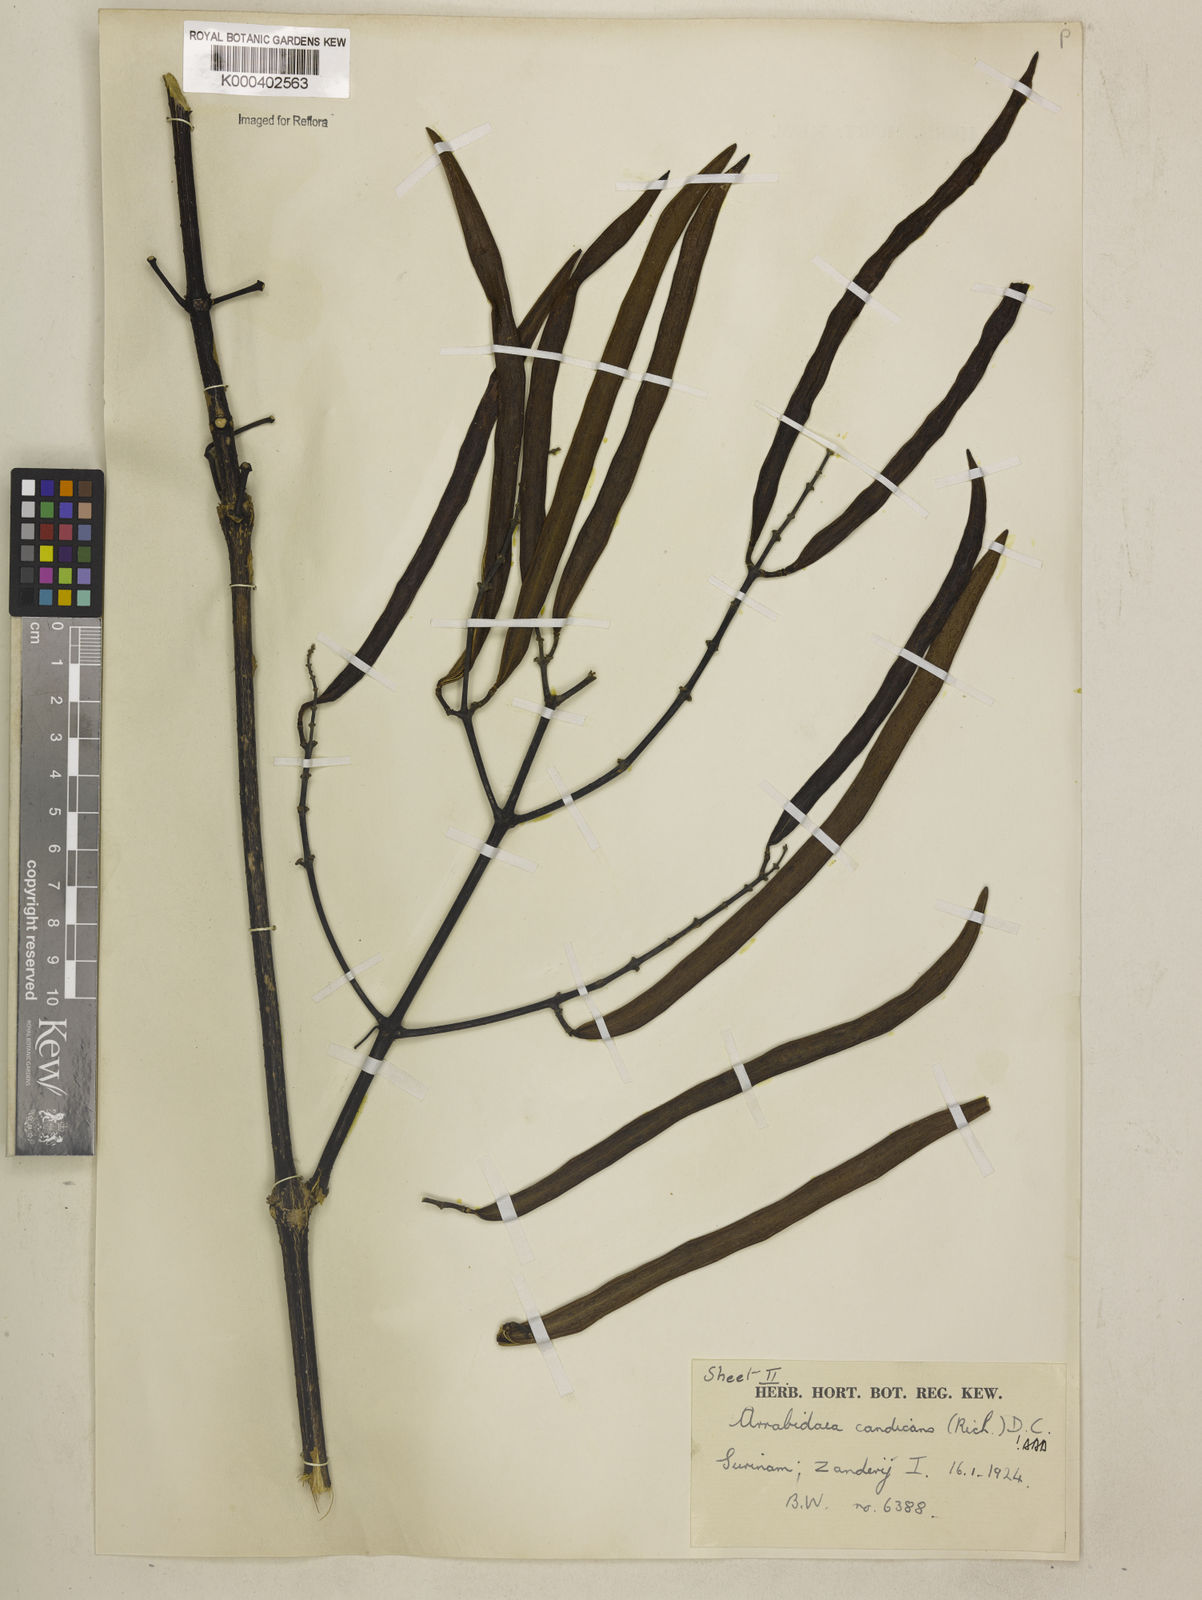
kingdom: Plantae
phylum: Tracheophyta
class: Magnoliopsida
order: Lamiales
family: Bignoniaceae
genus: Fridericia
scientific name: Fridericia candicans
